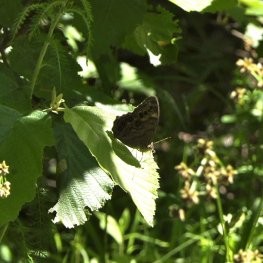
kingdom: Animalia
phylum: Arthropoda
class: Insecta
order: Lepidoptera
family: Nymphalidae
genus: Lethe
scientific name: Lethe anthedon
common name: Northern Pearly-Eye
